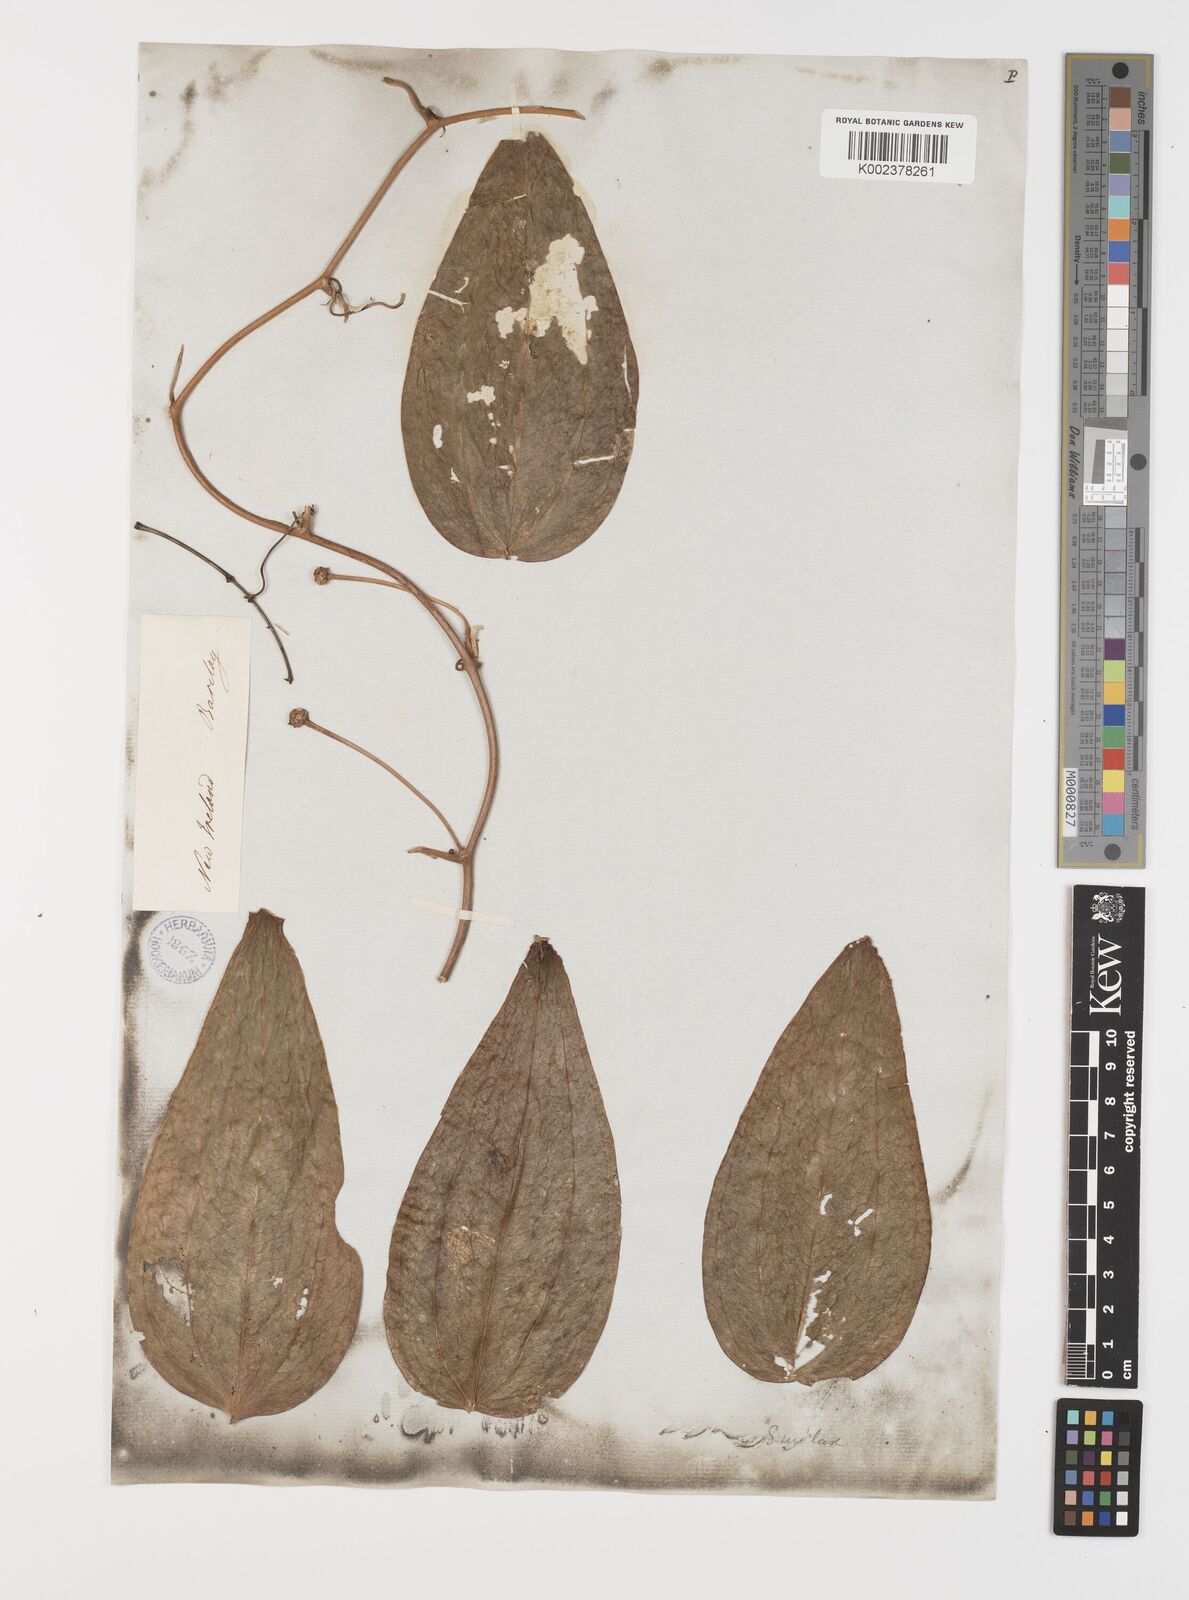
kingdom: Plantae
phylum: Tracheophyta
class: Liliopsida
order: Liliales
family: Smilacaceae
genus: Smilax
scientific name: Smilax
